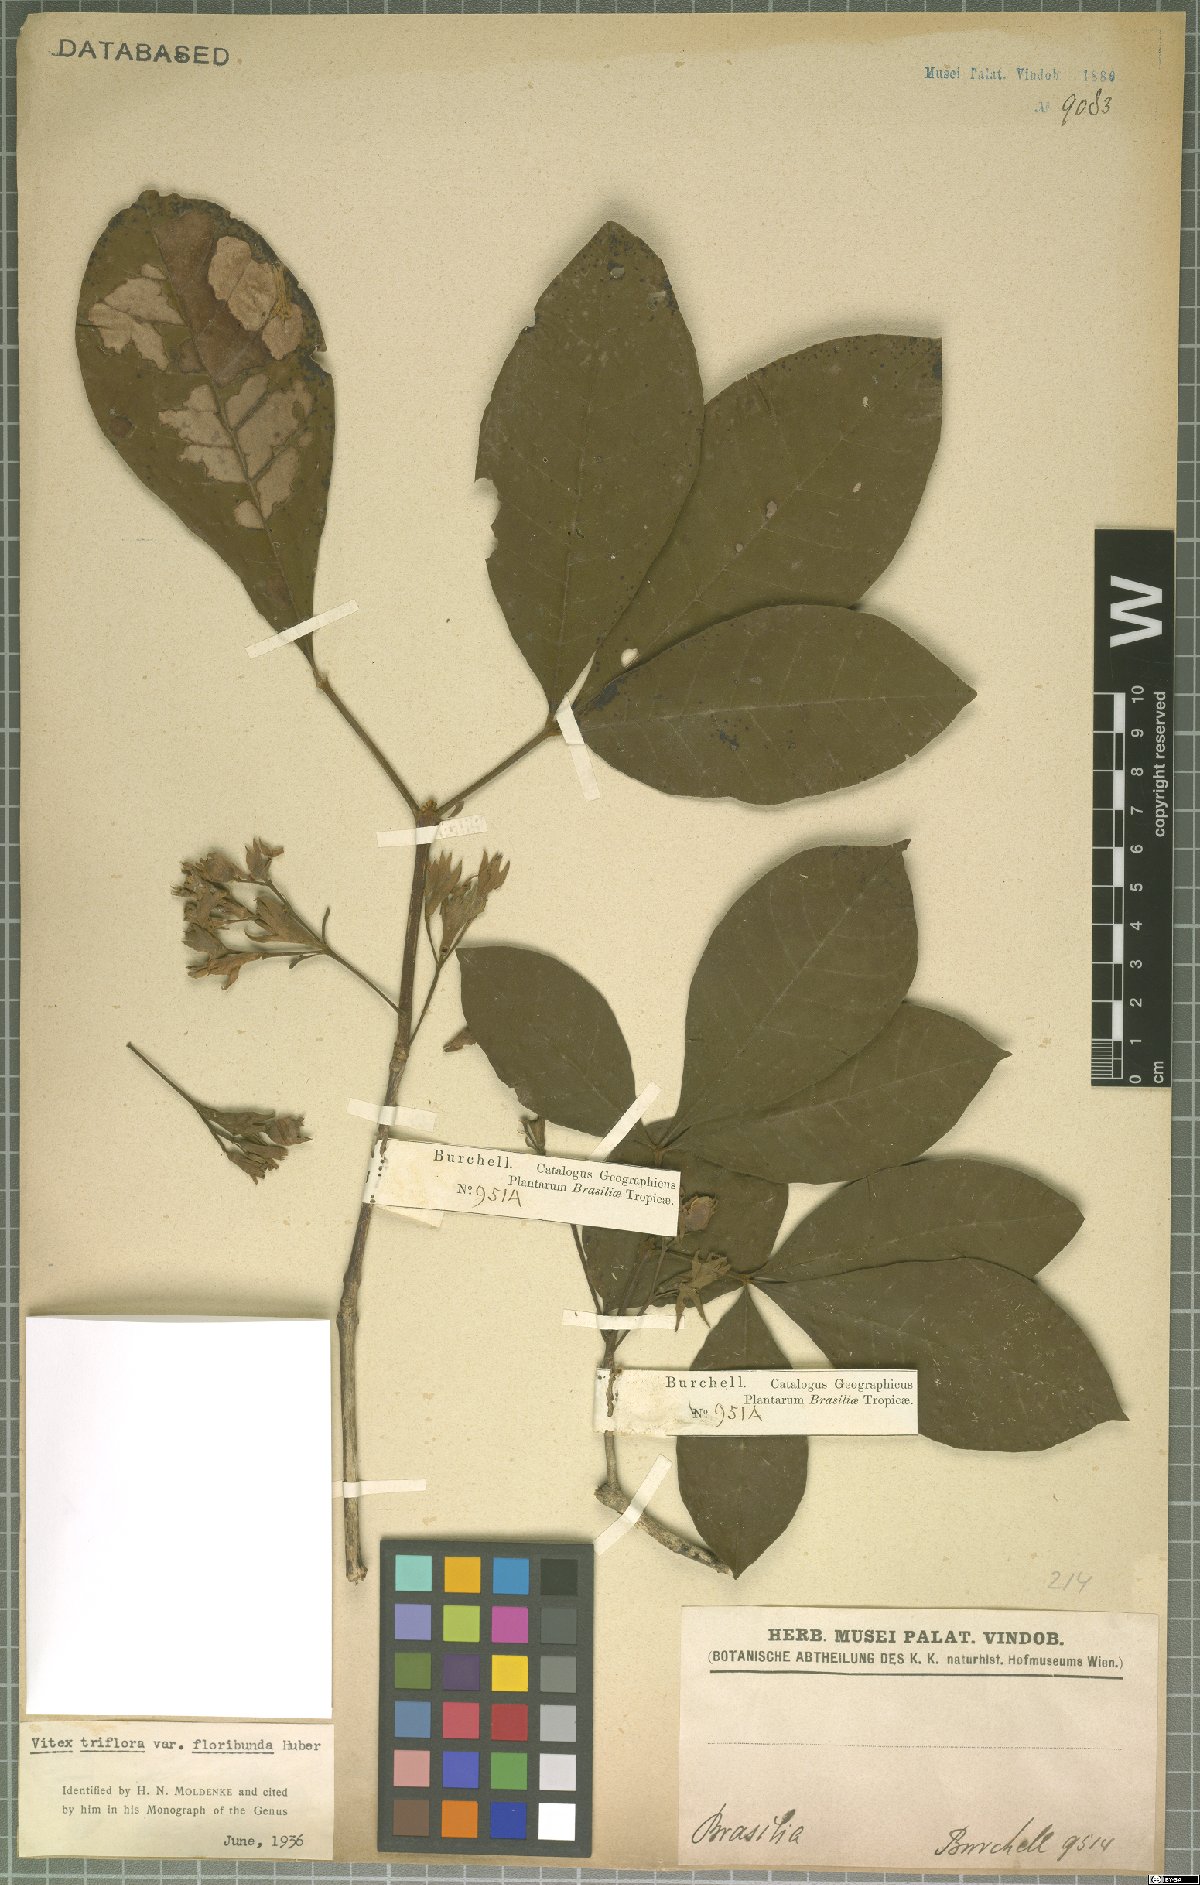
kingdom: Plantae
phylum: Tracheophyta
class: Magnoliopsida
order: Lamiales
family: Lamiaceae
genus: Vitex
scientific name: Vitex triflora
